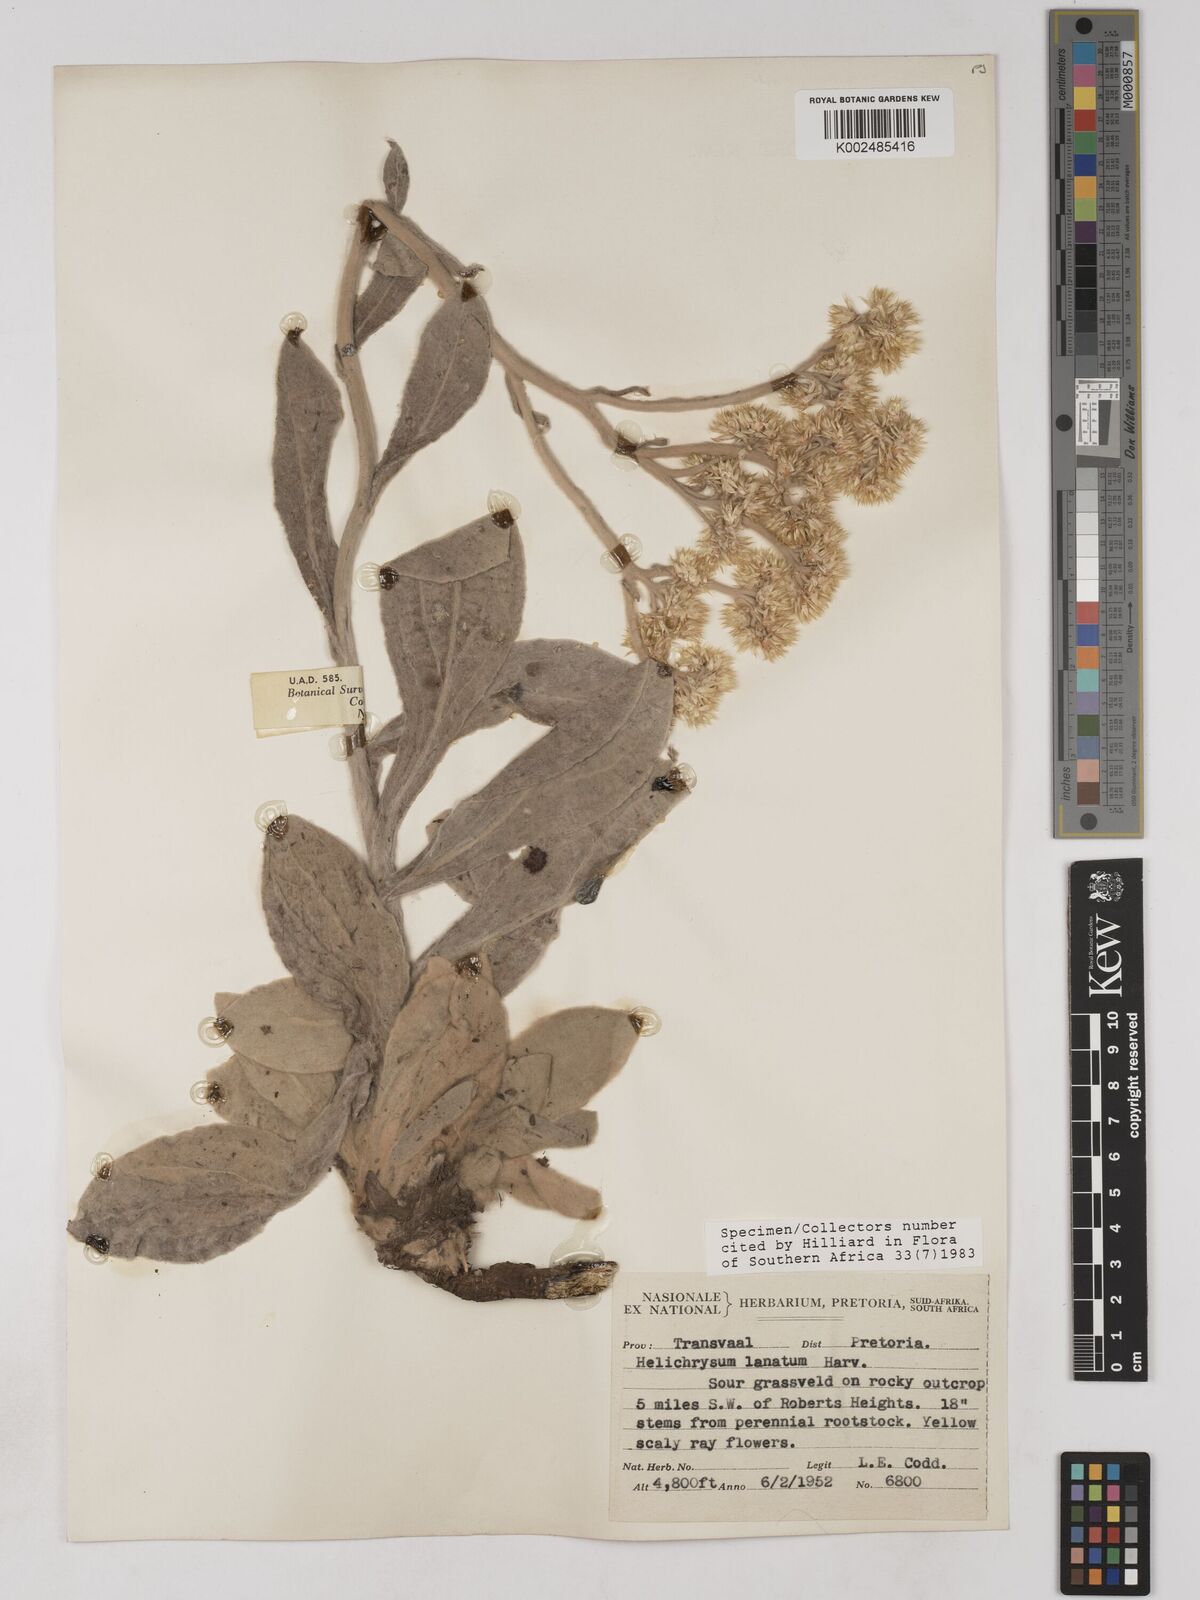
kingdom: Plantae
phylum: Tracheophyta
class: Magnoliopsida
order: Asterales
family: Asteraceae
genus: Helichrysum
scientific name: Helichrysum dasymallum
